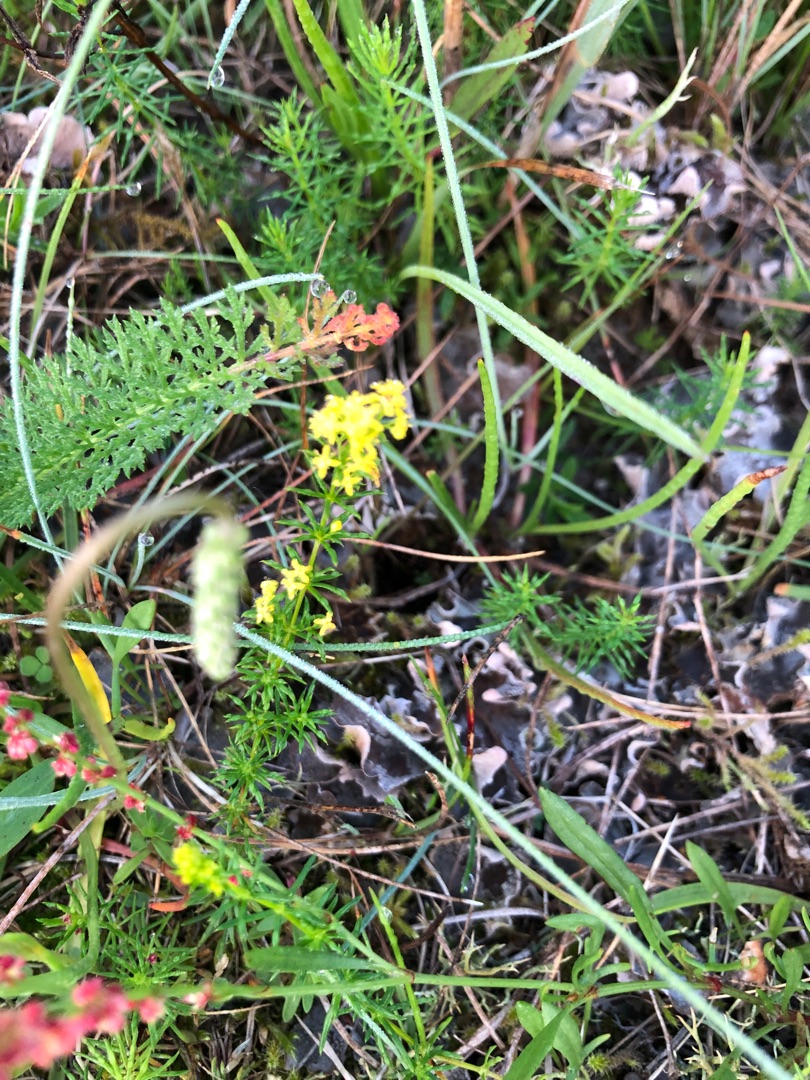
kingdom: Plantae
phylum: Tracheophyta
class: Magnoliopsida
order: Gentianales
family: Rubiaceae
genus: Galium
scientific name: Galium verum
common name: Gul snerre
